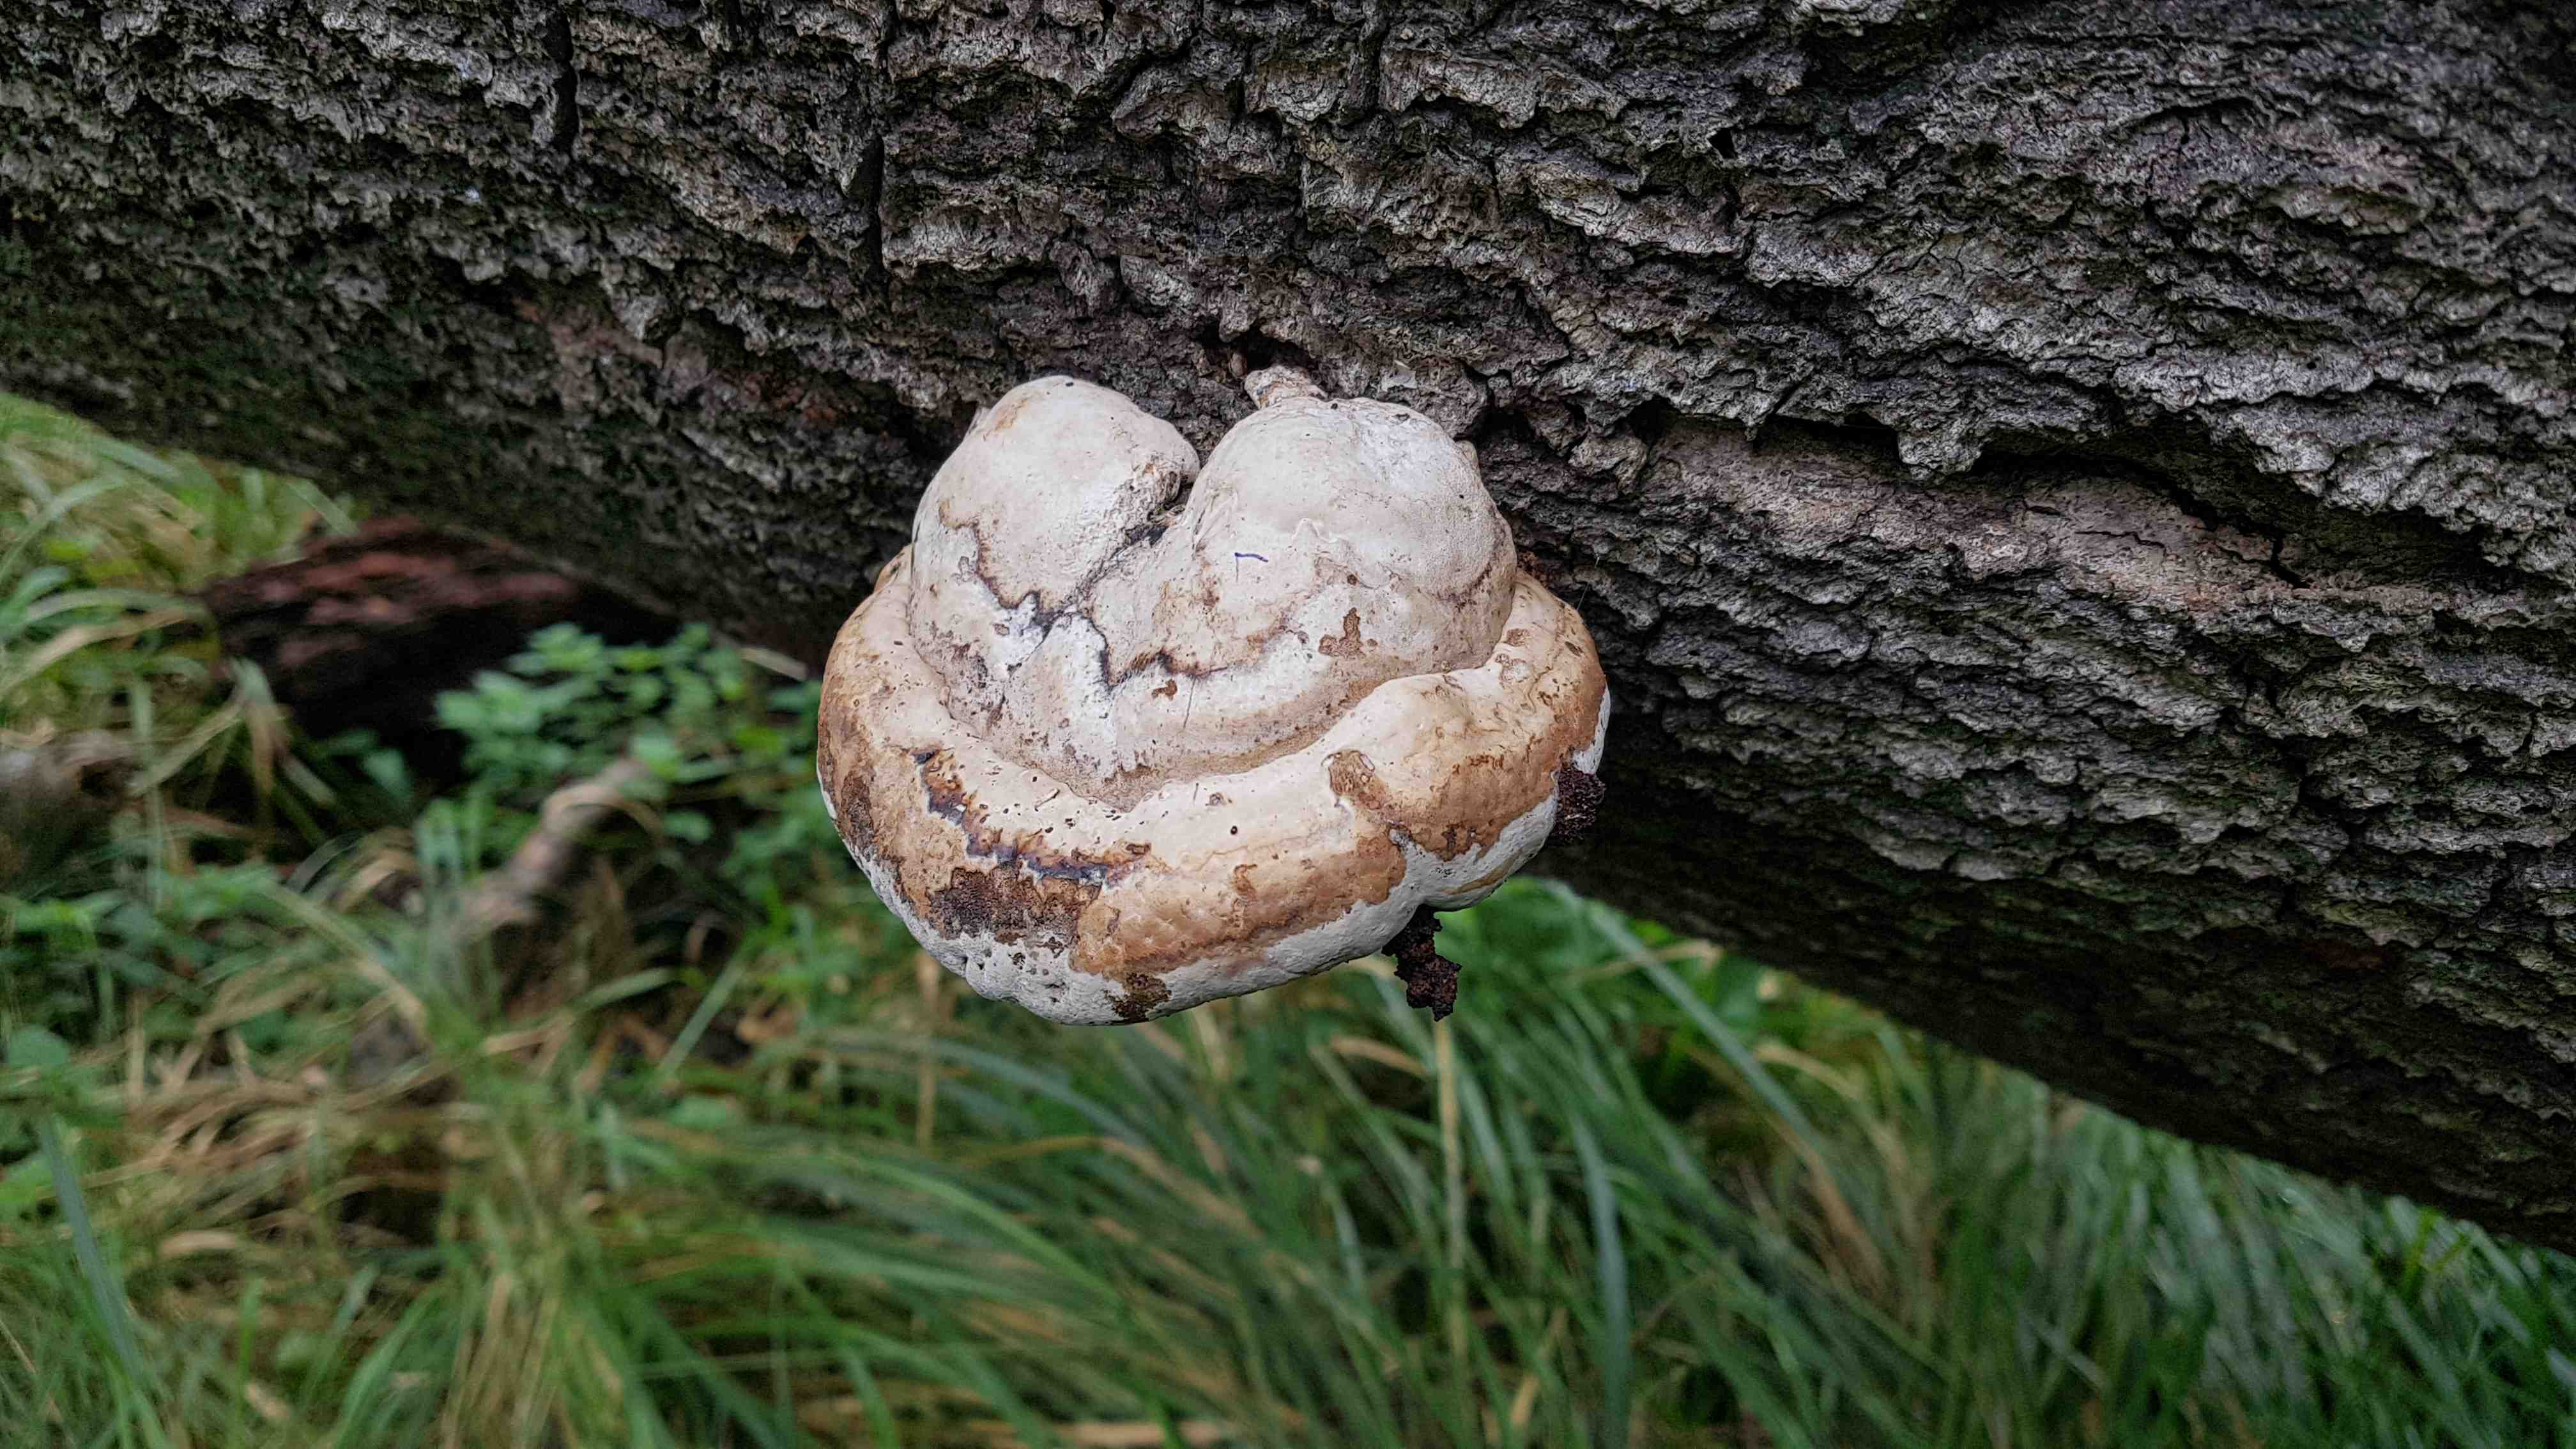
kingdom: Fungi
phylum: Basidiomycota
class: Agaricomycetes
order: Polyporales
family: Polyporaceae
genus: Fomes
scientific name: Fomes fomentarius
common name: tøndersvamp
